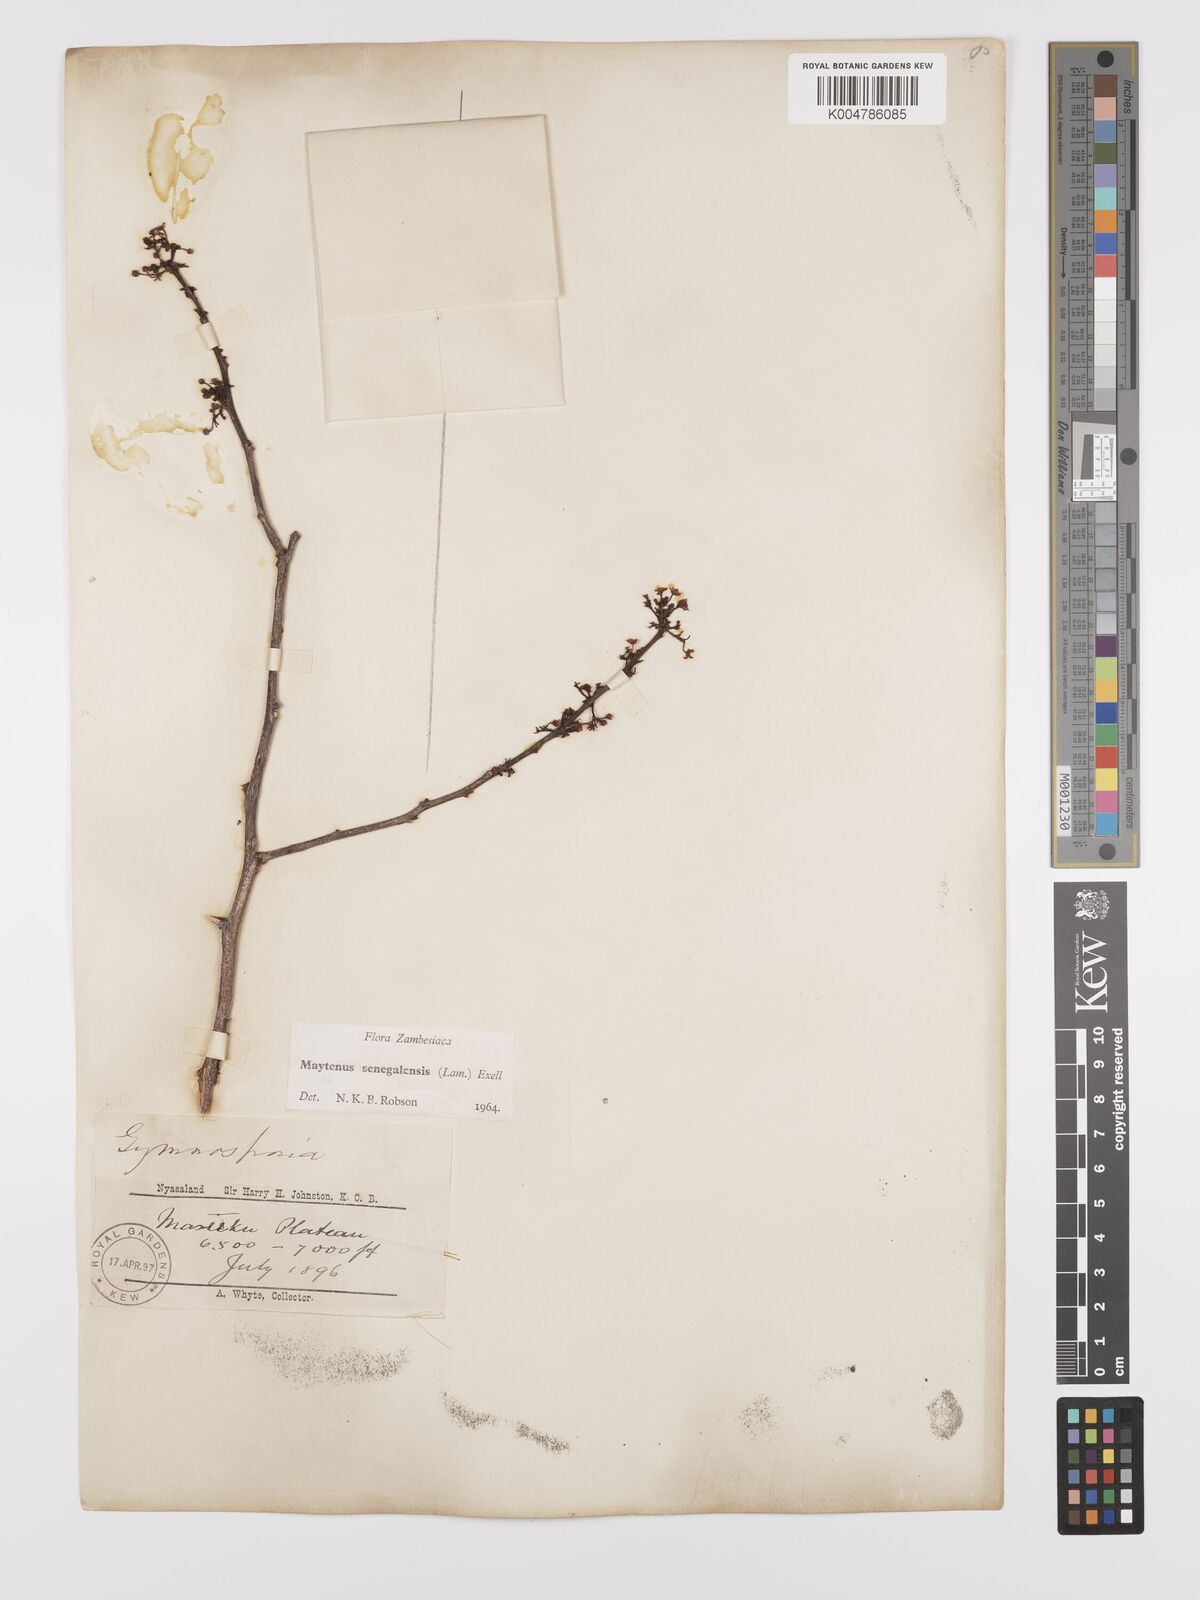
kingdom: Plantae
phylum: Tracheophyta
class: Magnoliopsida
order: Celastrales
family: Celastraceae
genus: Gymnosporia
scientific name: Gymnosporia senegalensis
